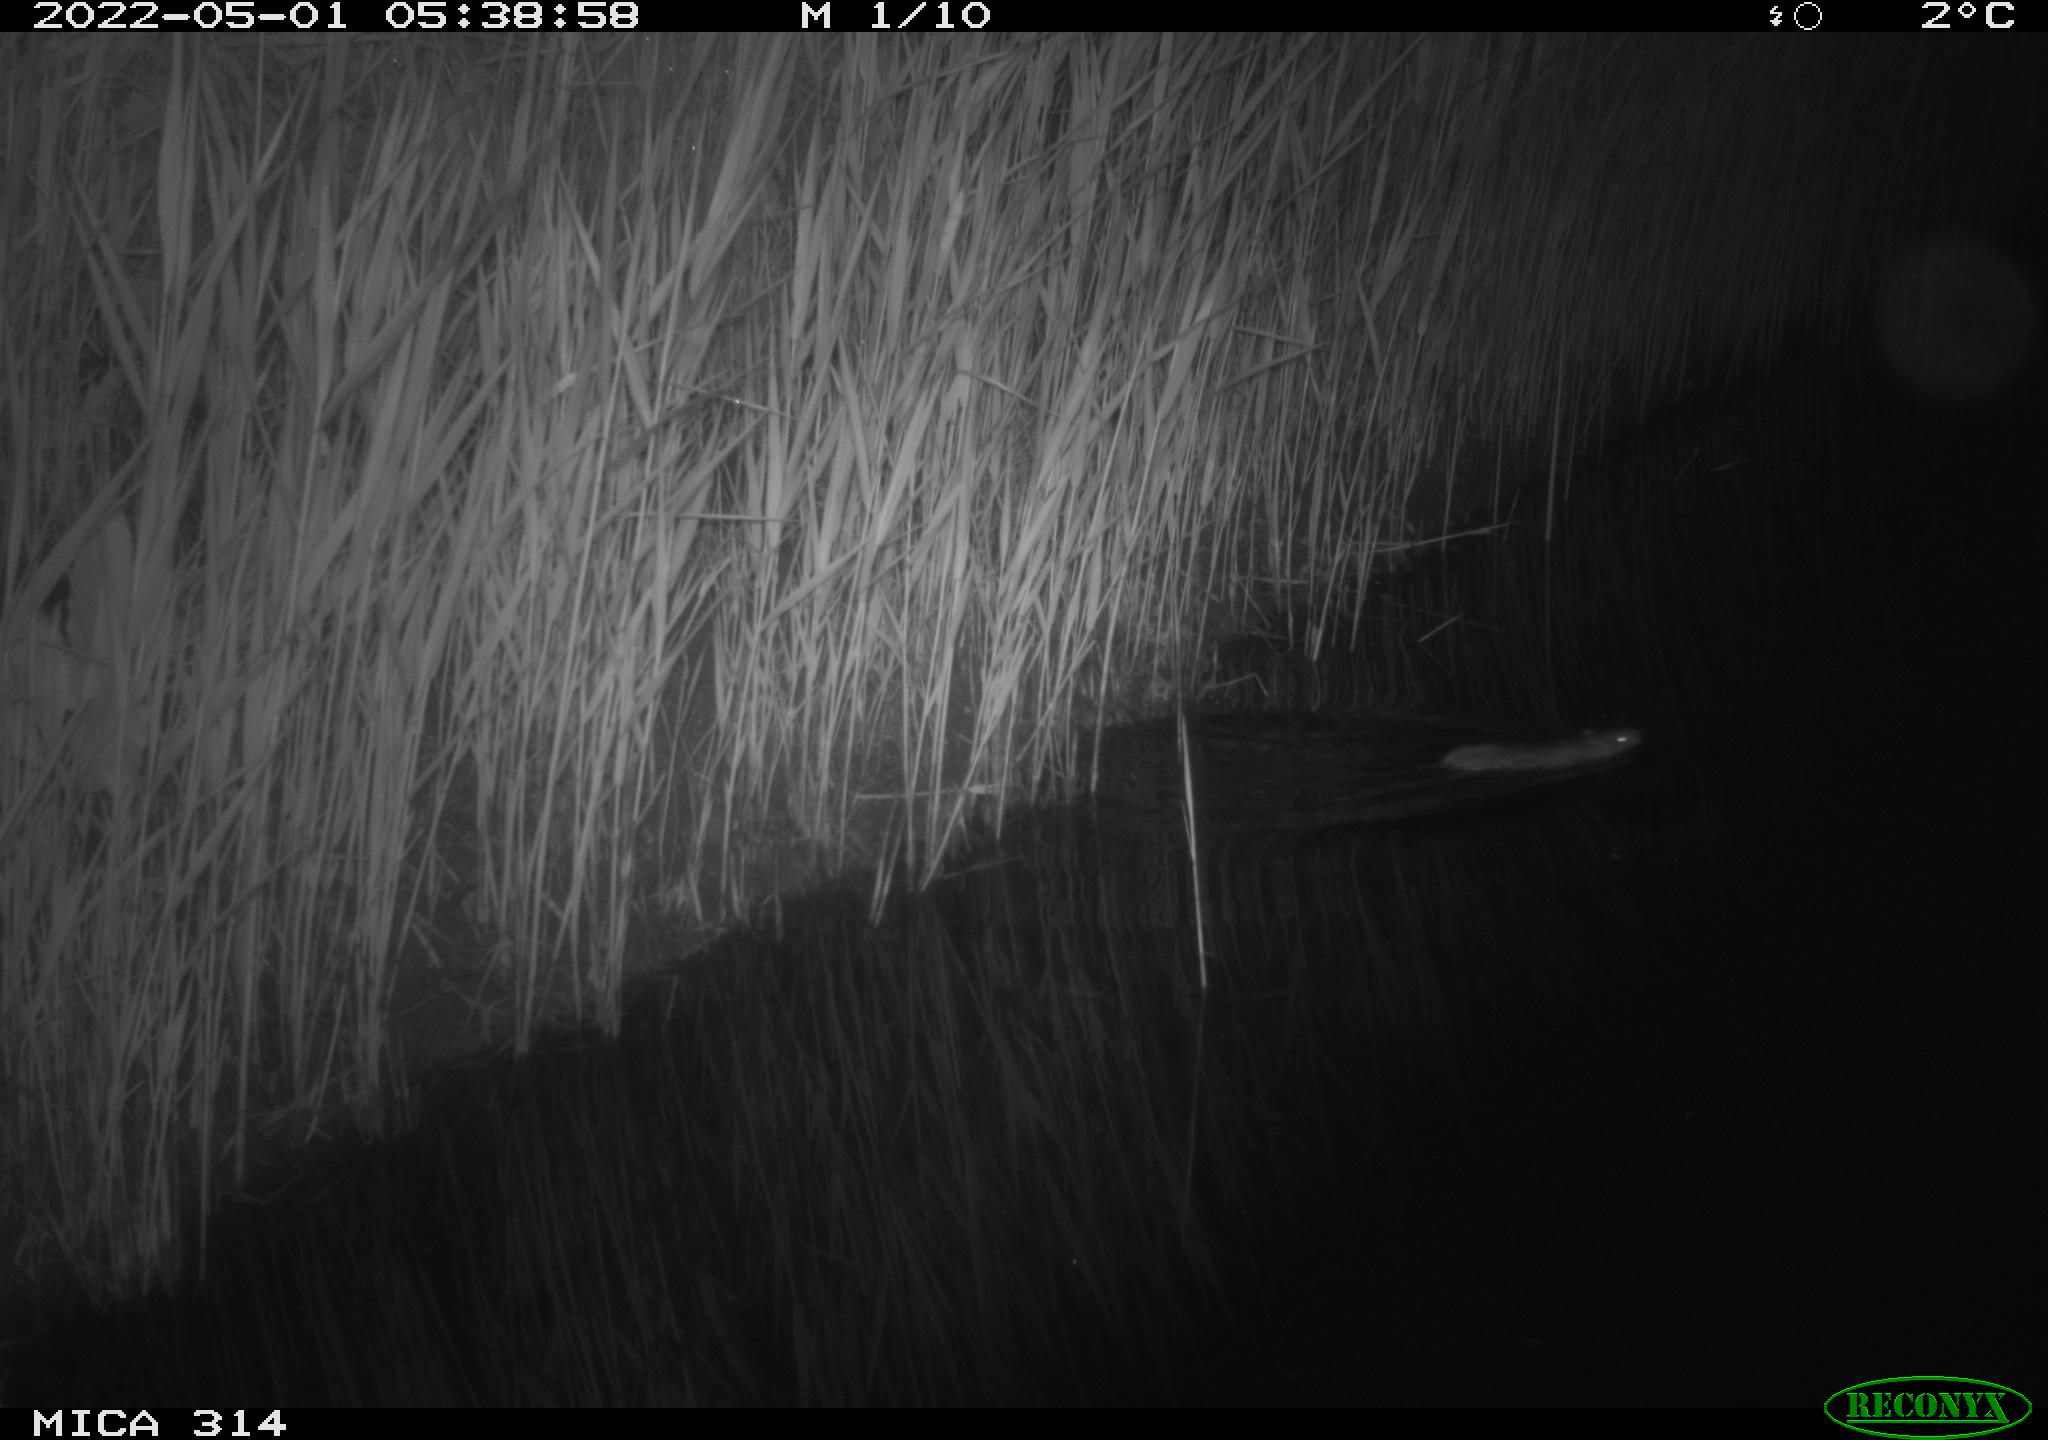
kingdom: Animalia
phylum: Chordata
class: Mammalia
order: Rodentia
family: Muridae
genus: Rattus
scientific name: Rattus norvegicus
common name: Brown rat
